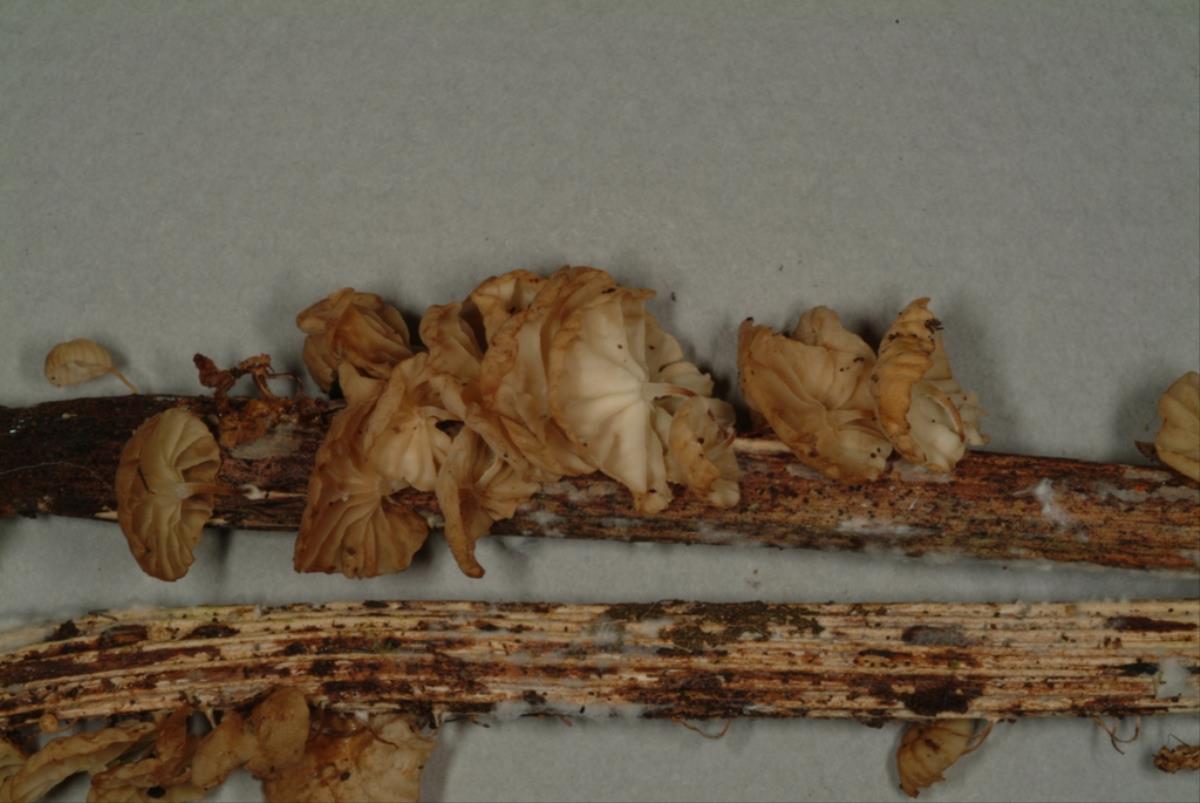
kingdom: Fungi
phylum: Basidiomycota
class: Agaricomycetes
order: Agaricales
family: Marasmiaceae
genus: Marasmius
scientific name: Marasmius
